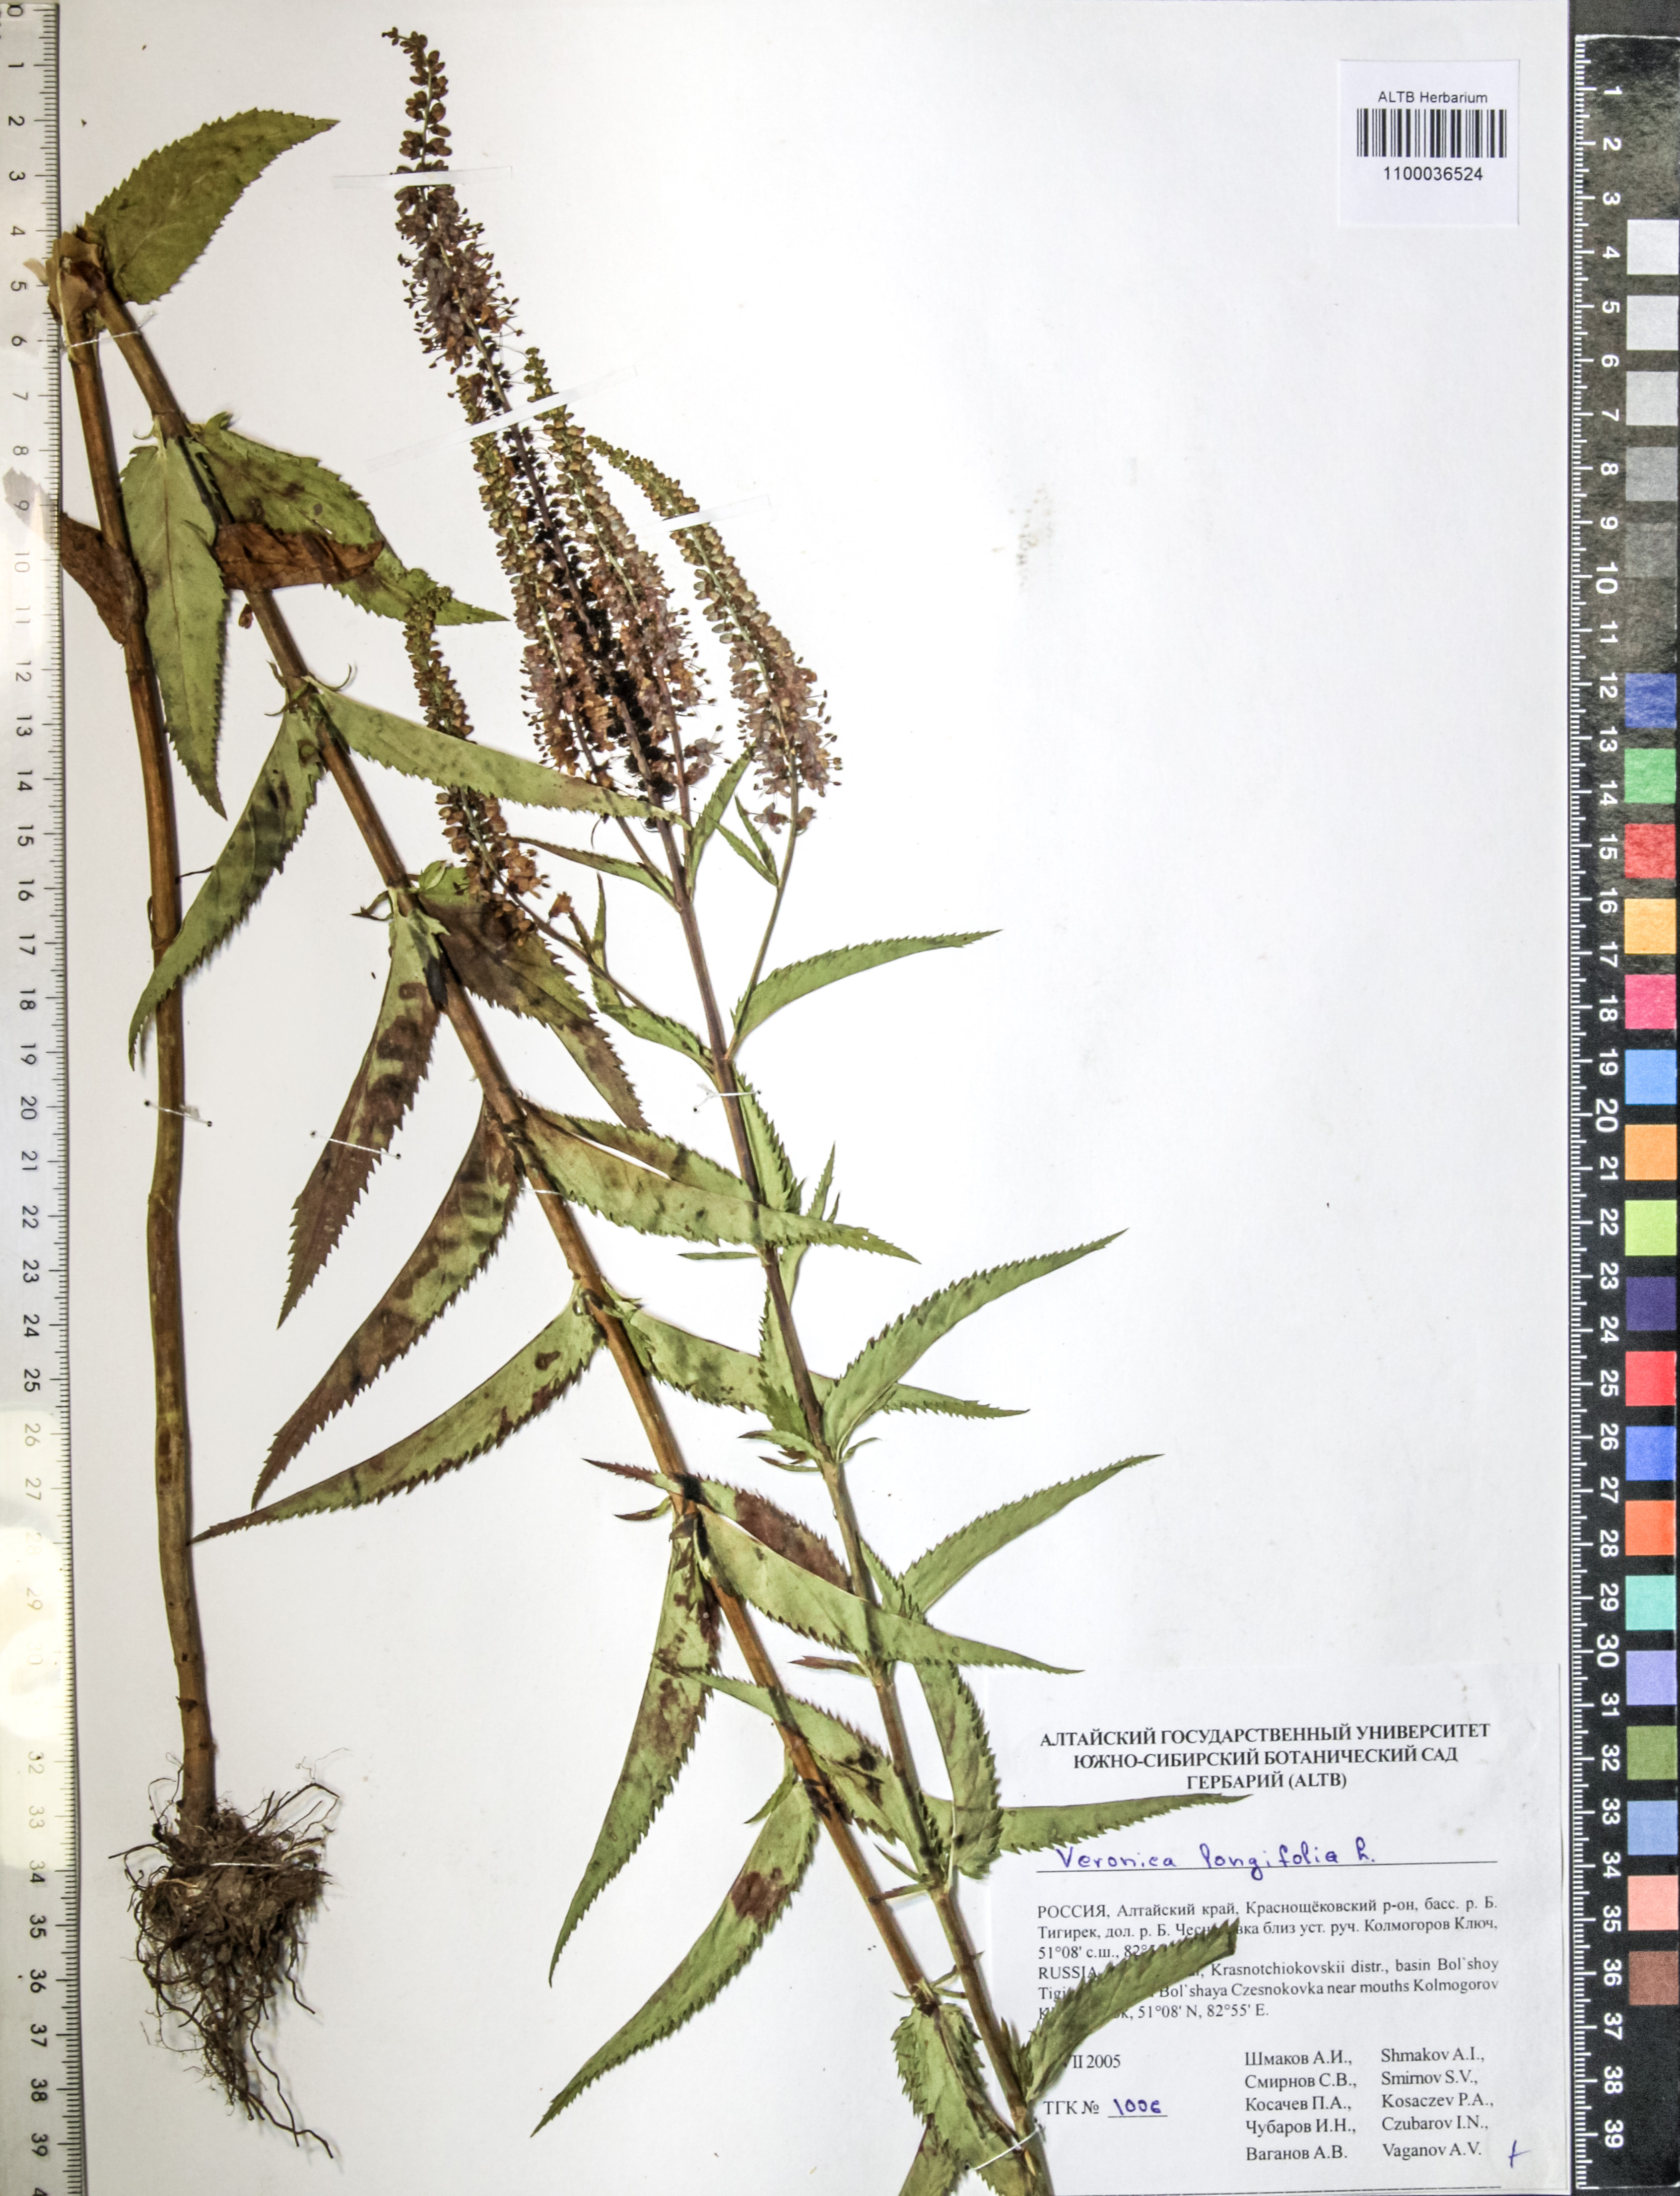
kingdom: Plantae
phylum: Tracheophyta
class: Magnoliopsida
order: Lamiales
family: Plantaginaceae
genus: Veronica
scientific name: Veronica longifolia
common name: Garden speedwell
